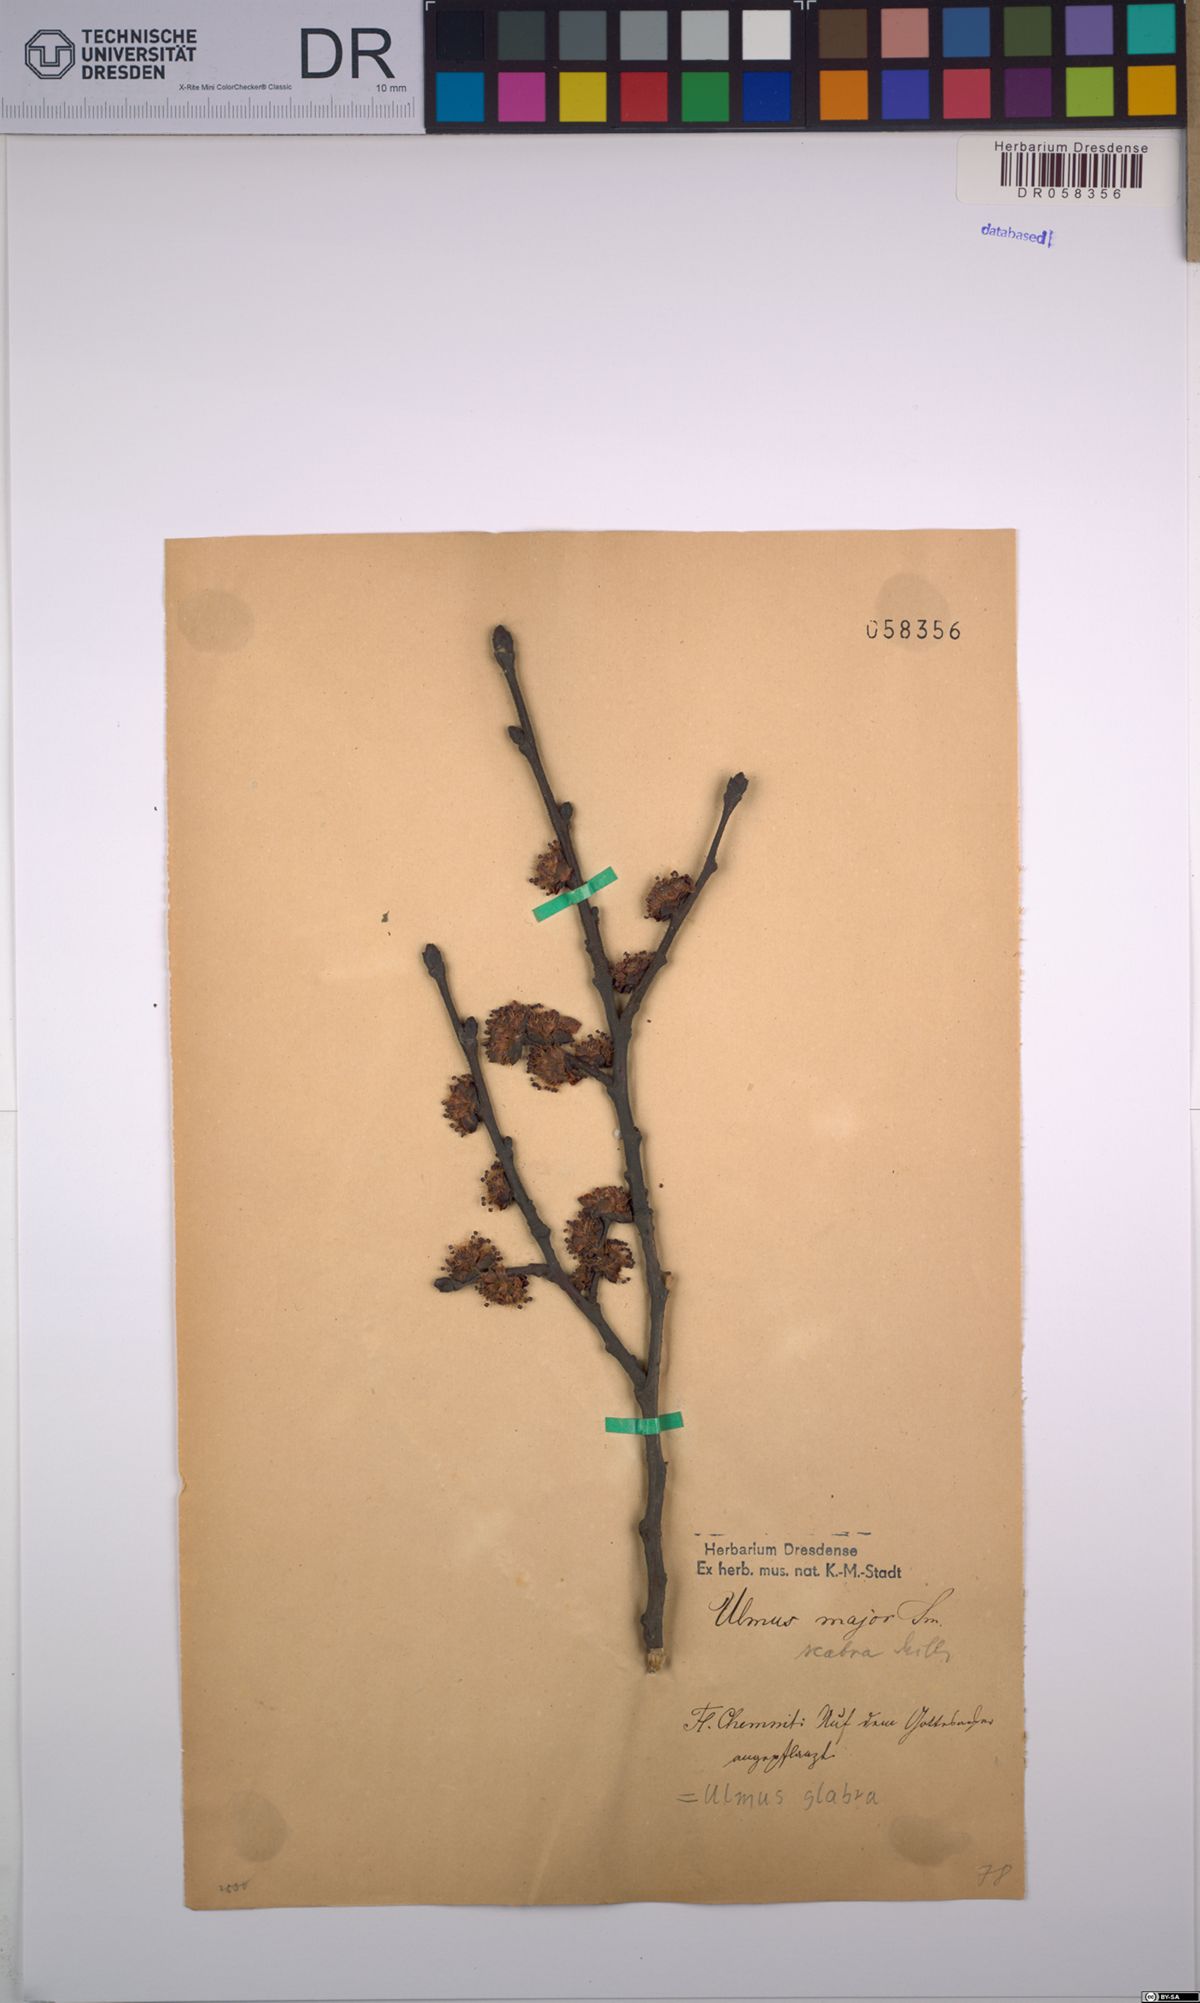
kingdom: Plantae
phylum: Tracheophyta
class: Magnoliopsida
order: Rosales
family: Ulmaceae
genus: Ulmus
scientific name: Ulmus glabra
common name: Wych elm
